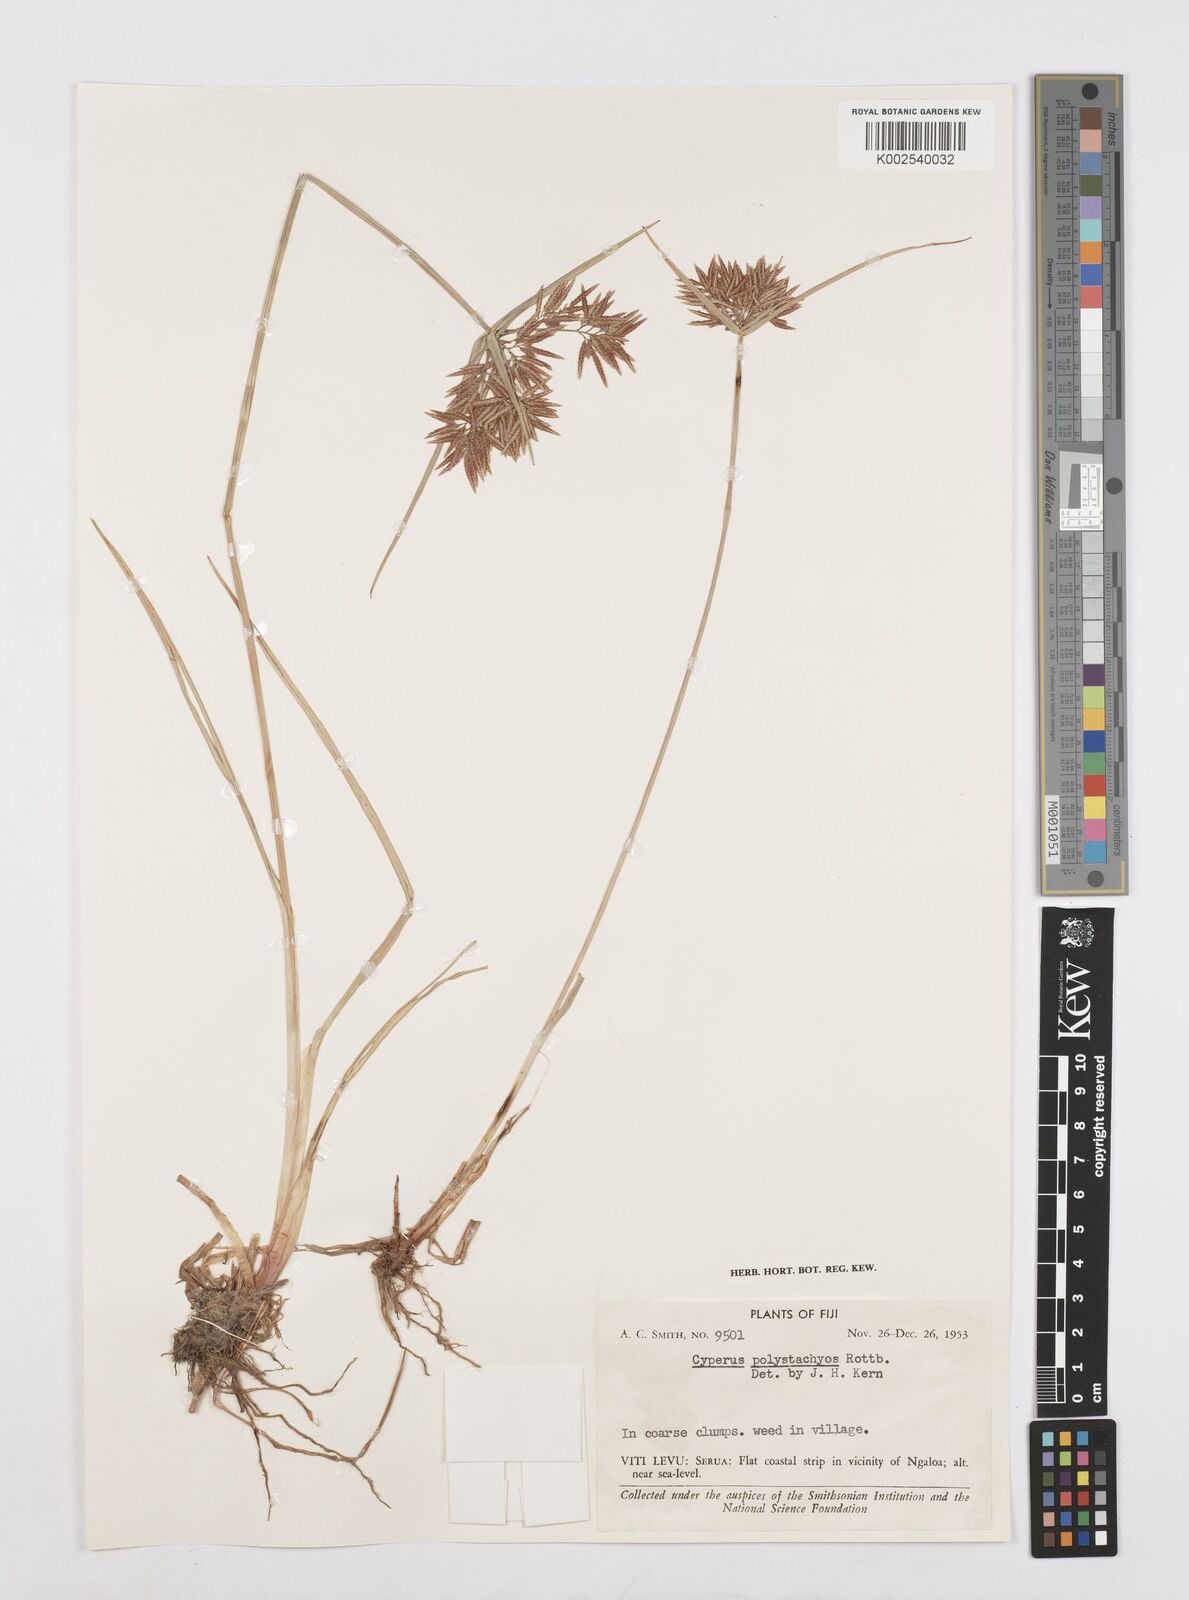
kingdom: Plantae
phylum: Tracheophyta
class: Liliopsida
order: Poales
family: Cyperaceae
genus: Cyperus
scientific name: Cyperus polystachyos
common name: Bunchy flat sedge
